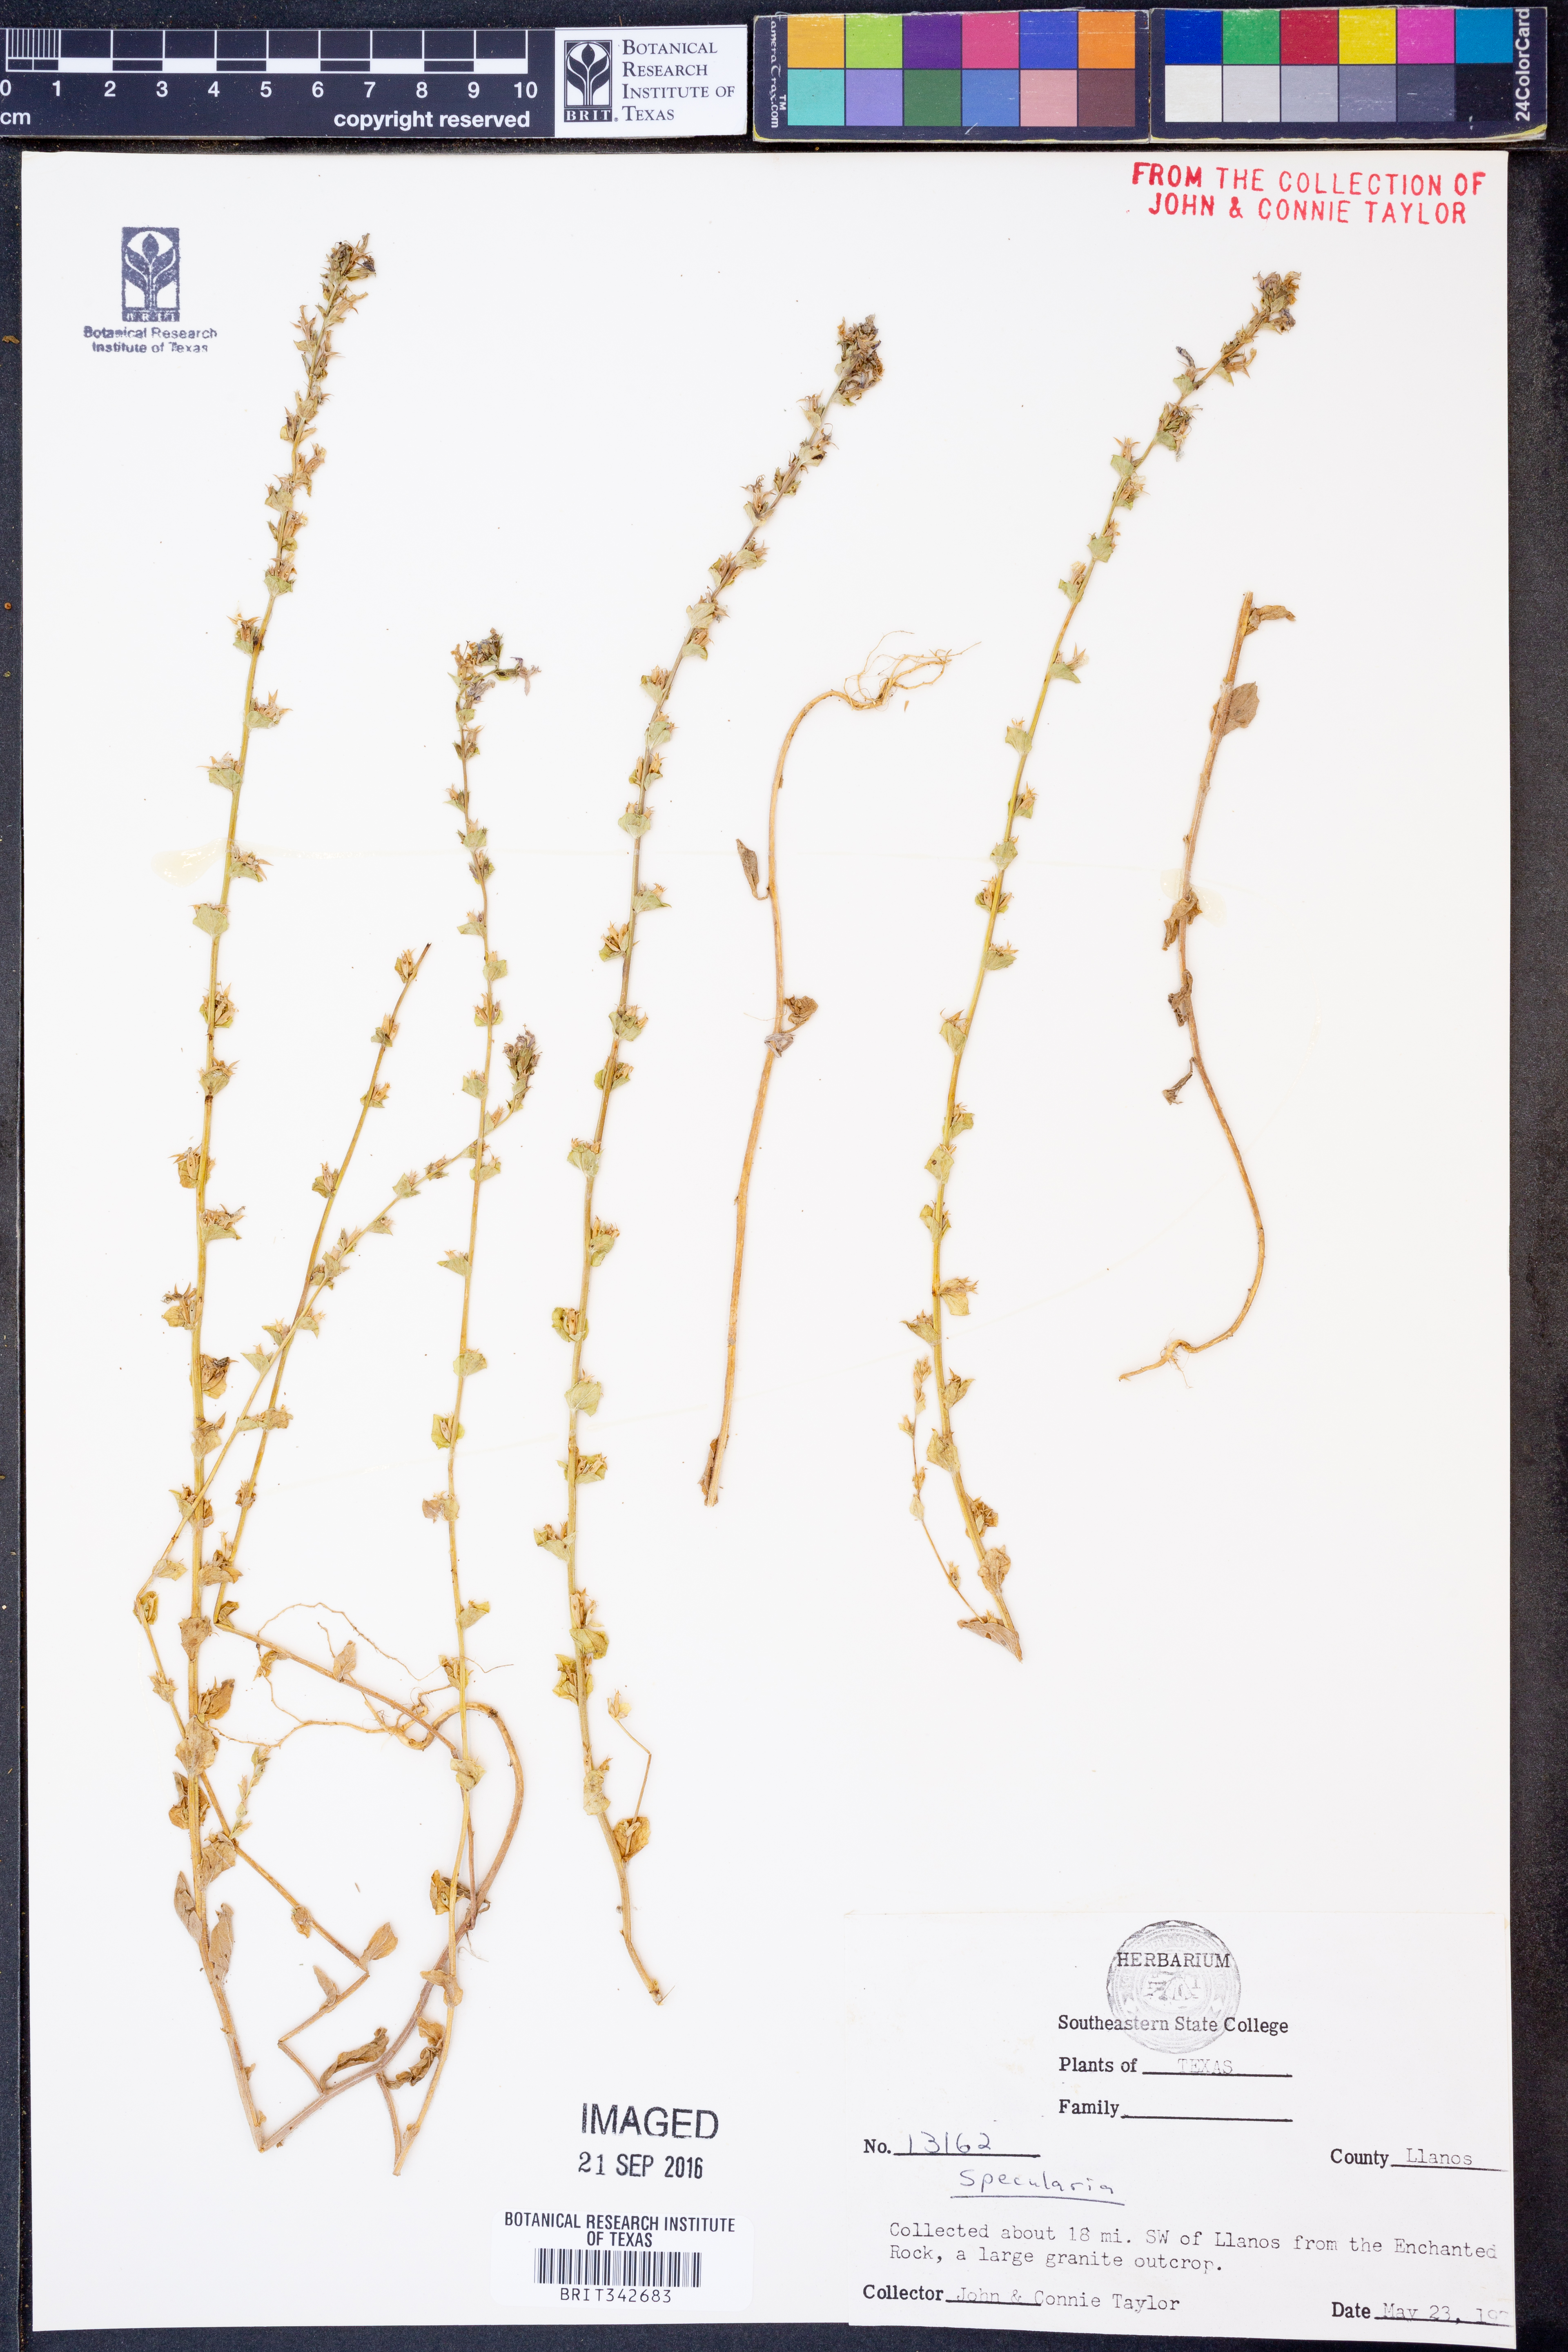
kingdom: Plantae
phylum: Tracheophyta
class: Magnoliopsida
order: Asterales
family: Campanulaceae
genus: Specularia
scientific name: Specularia
